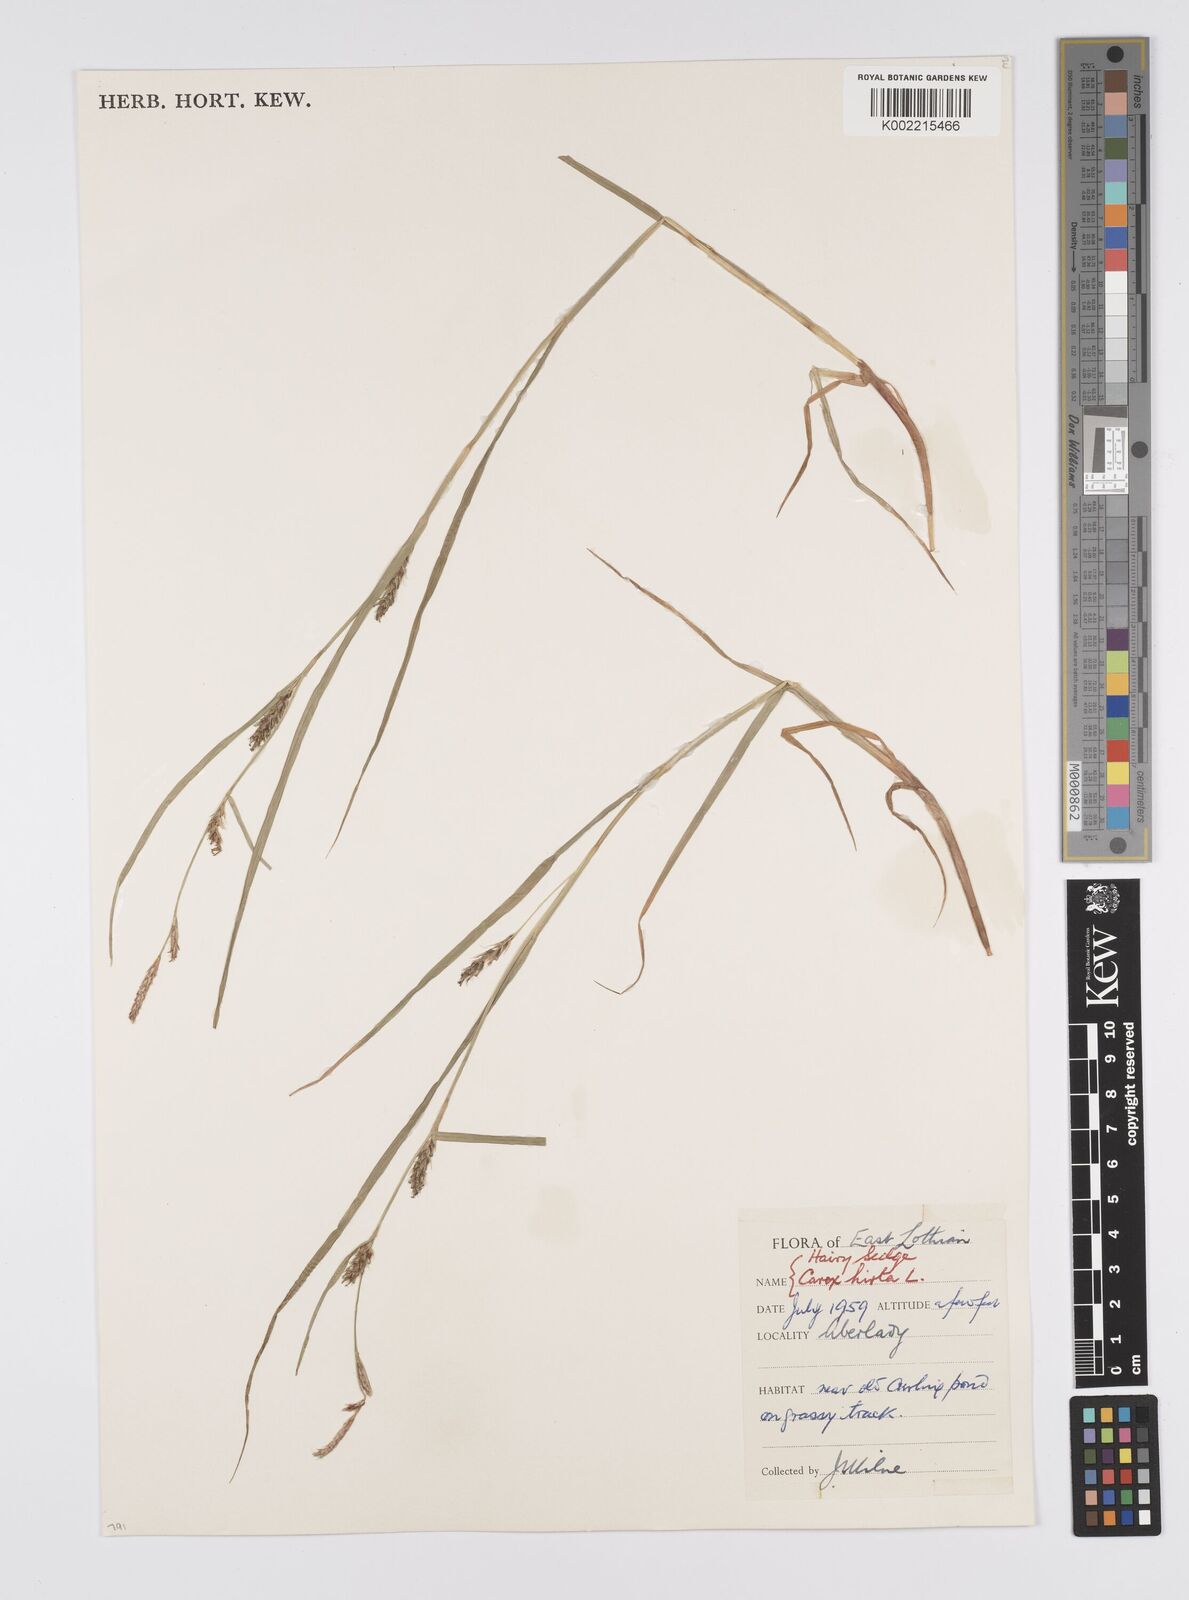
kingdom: Plantae
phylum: Tracheophyta
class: Liliopsida
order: Poales
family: Cyperaceae
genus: Carex
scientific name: Carex hirta
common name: Hairy sedge
